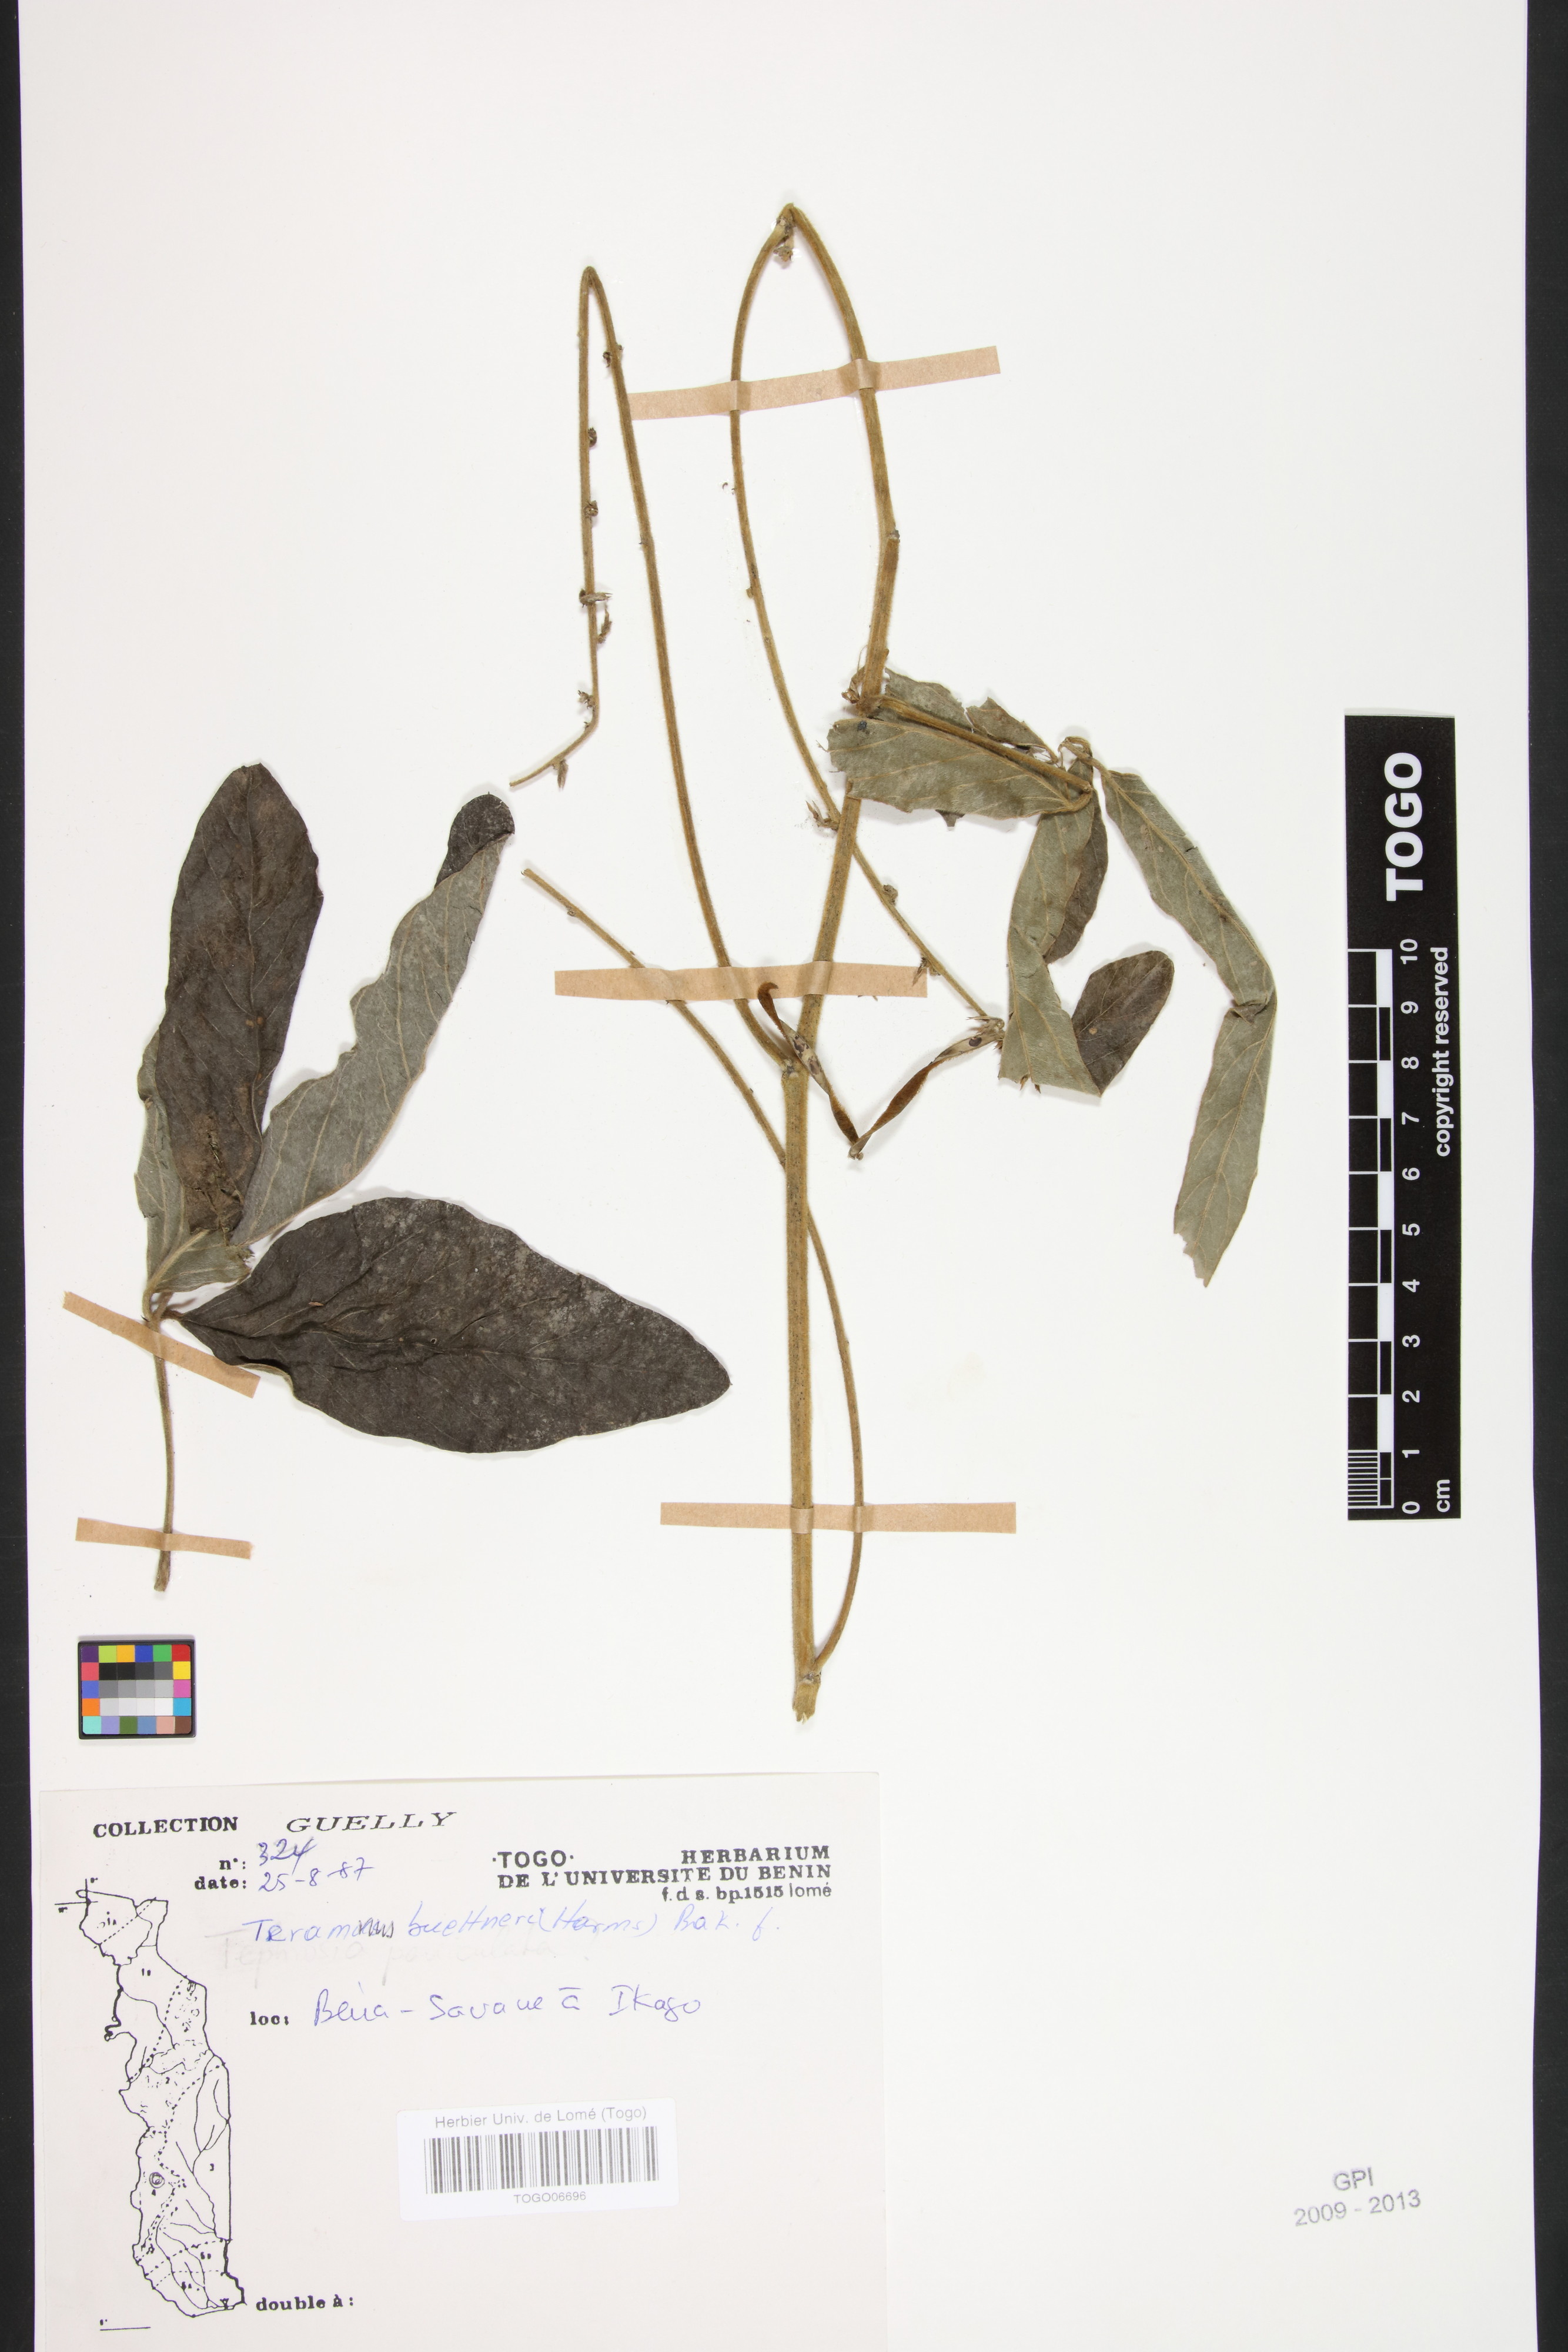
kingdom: Plantae
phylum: Tracheophyta
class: Magnoliopsida
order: Fabales
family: Fabaceae
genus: Teramnus
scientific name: Teramnus buettneri
